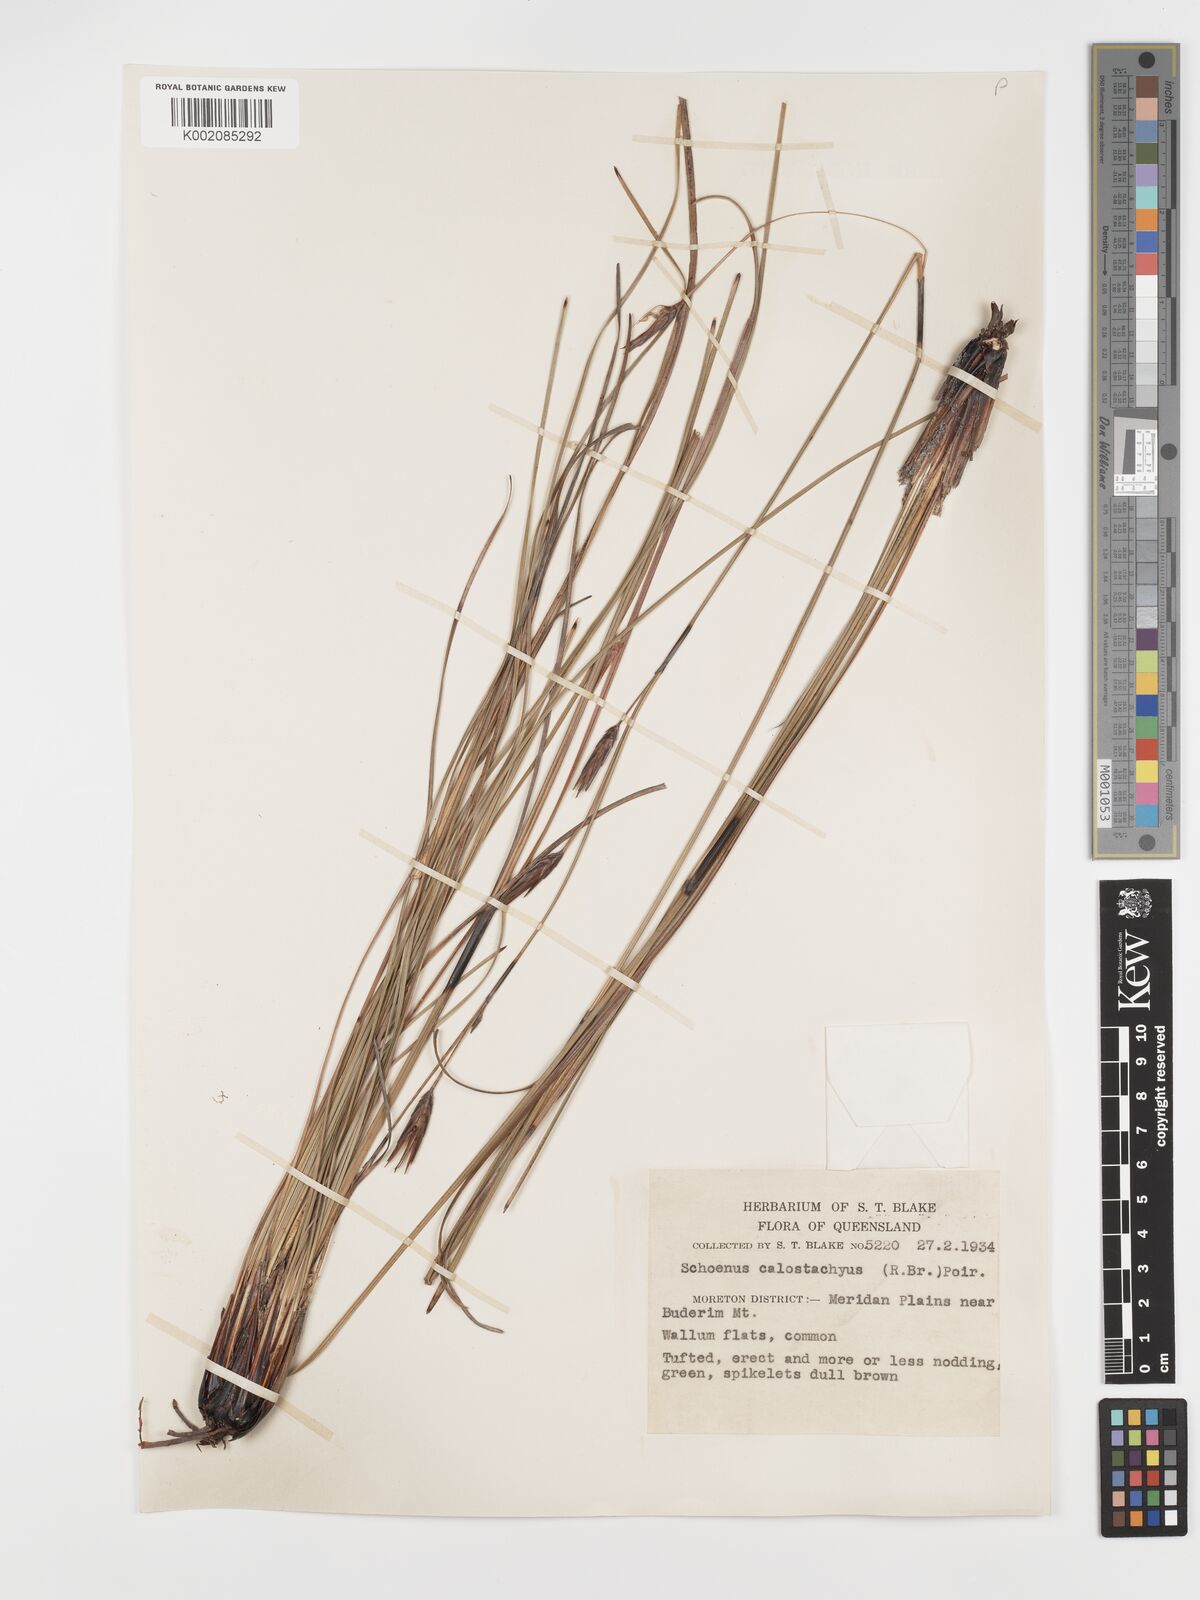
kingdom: Plantae
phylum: Tracheophyta
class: Liliopsida
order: Poales
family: Cyperaceae
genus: Schoenus
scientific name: Schoenus calostachyus
